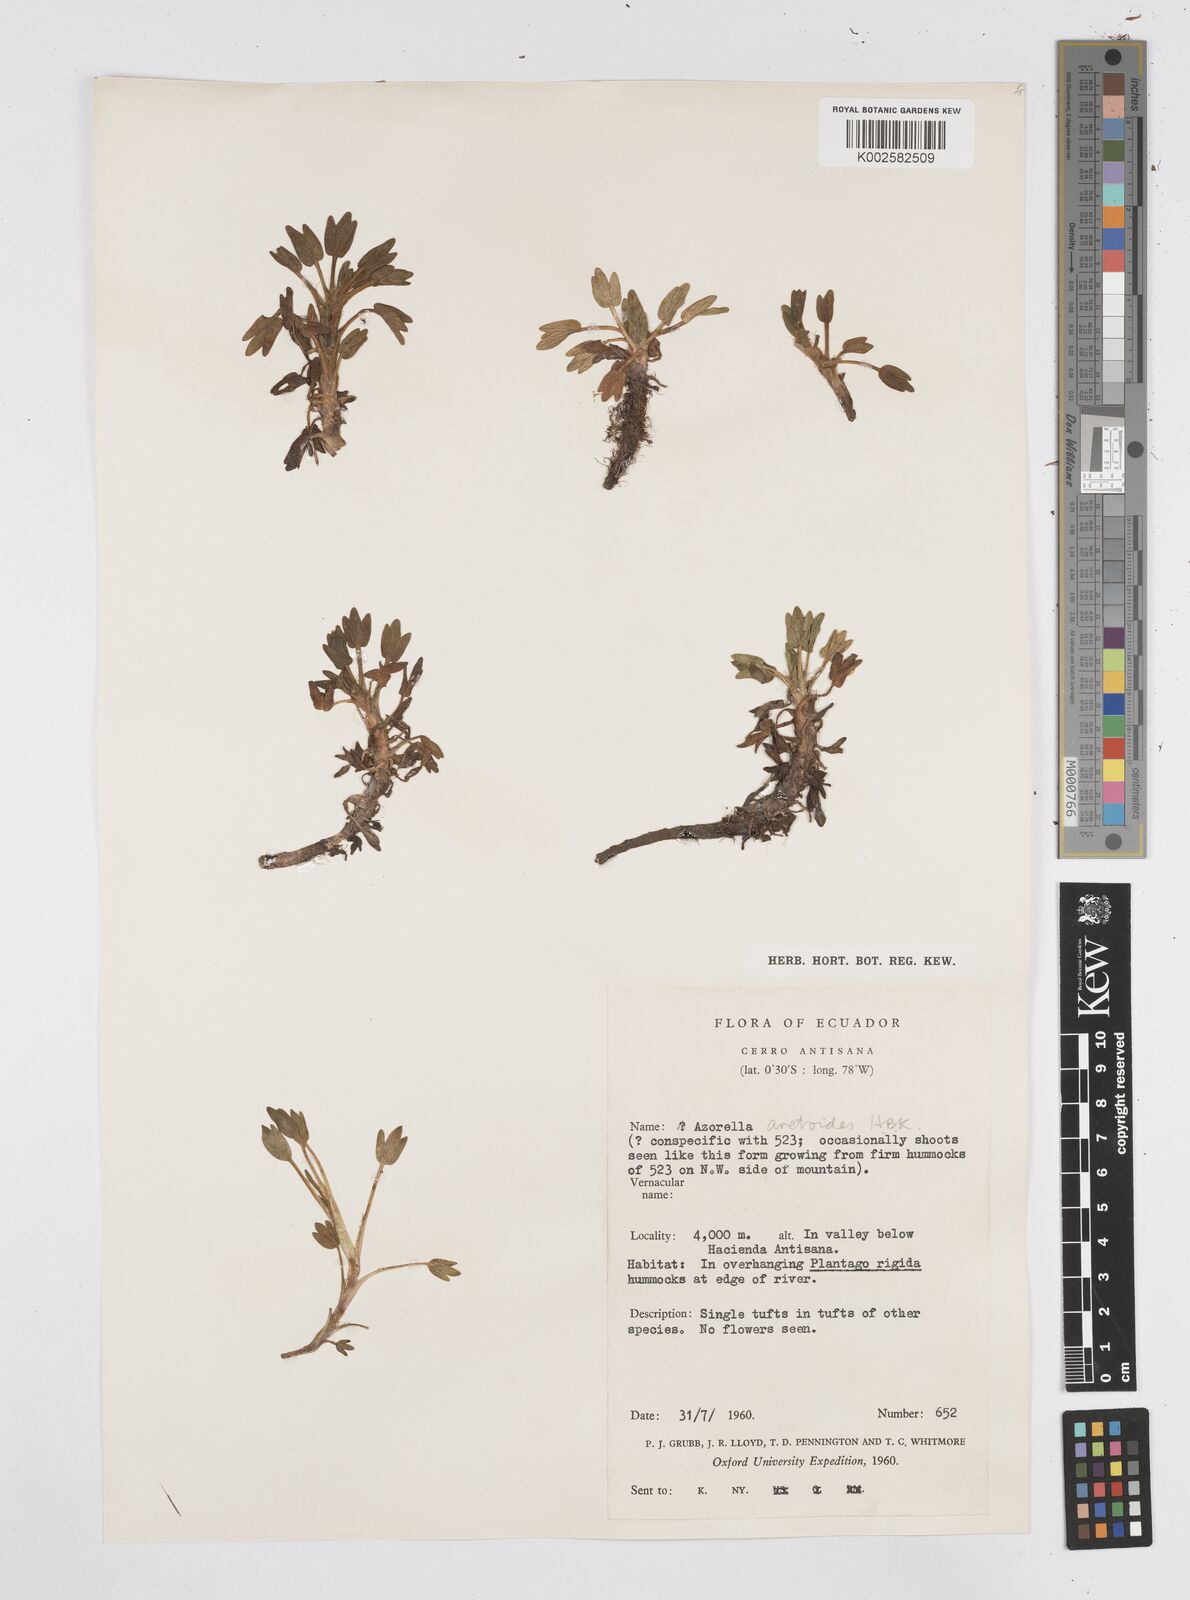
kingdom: Plantae
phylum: Tracheophyta
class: Magnoliopsida
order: Apiales
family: Apiaceae
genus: Azorella
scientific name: Azorella aretioides
